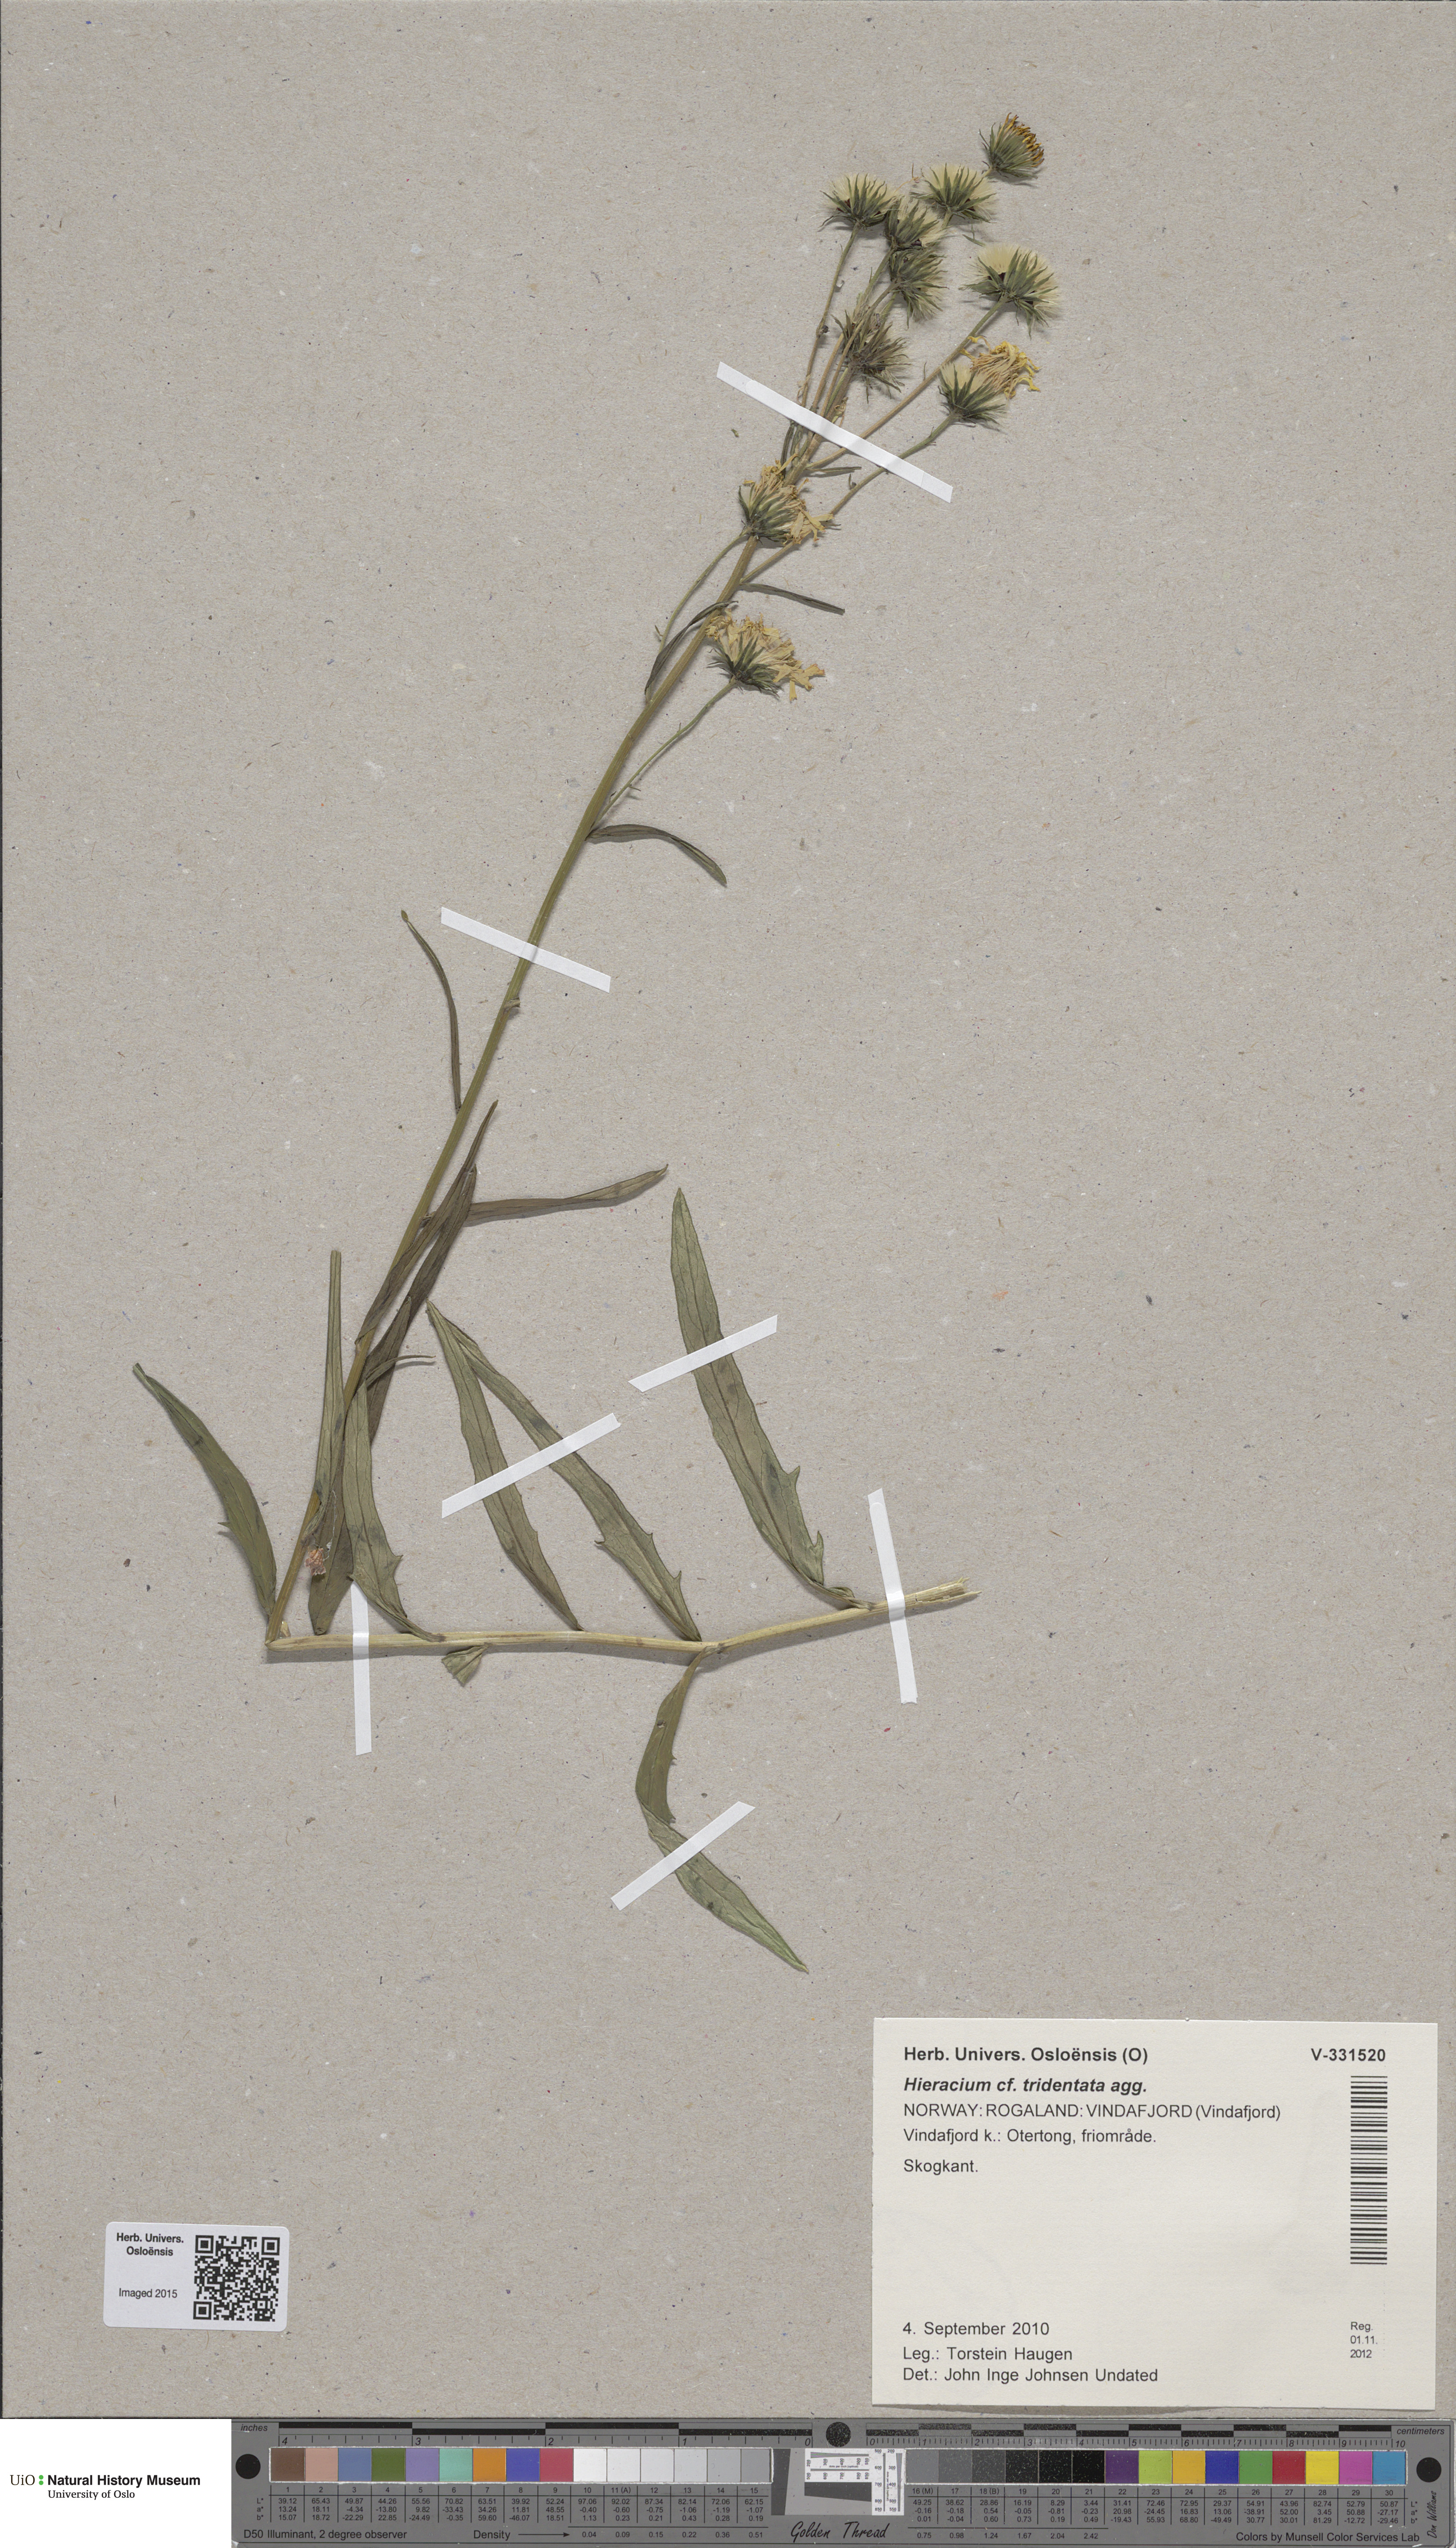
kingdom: Plantae
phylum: Tracheophyta
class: Magnoliopsida
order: Asterales
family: Asteraceae
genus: Hieracium
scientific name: Hieracium tridentatum
